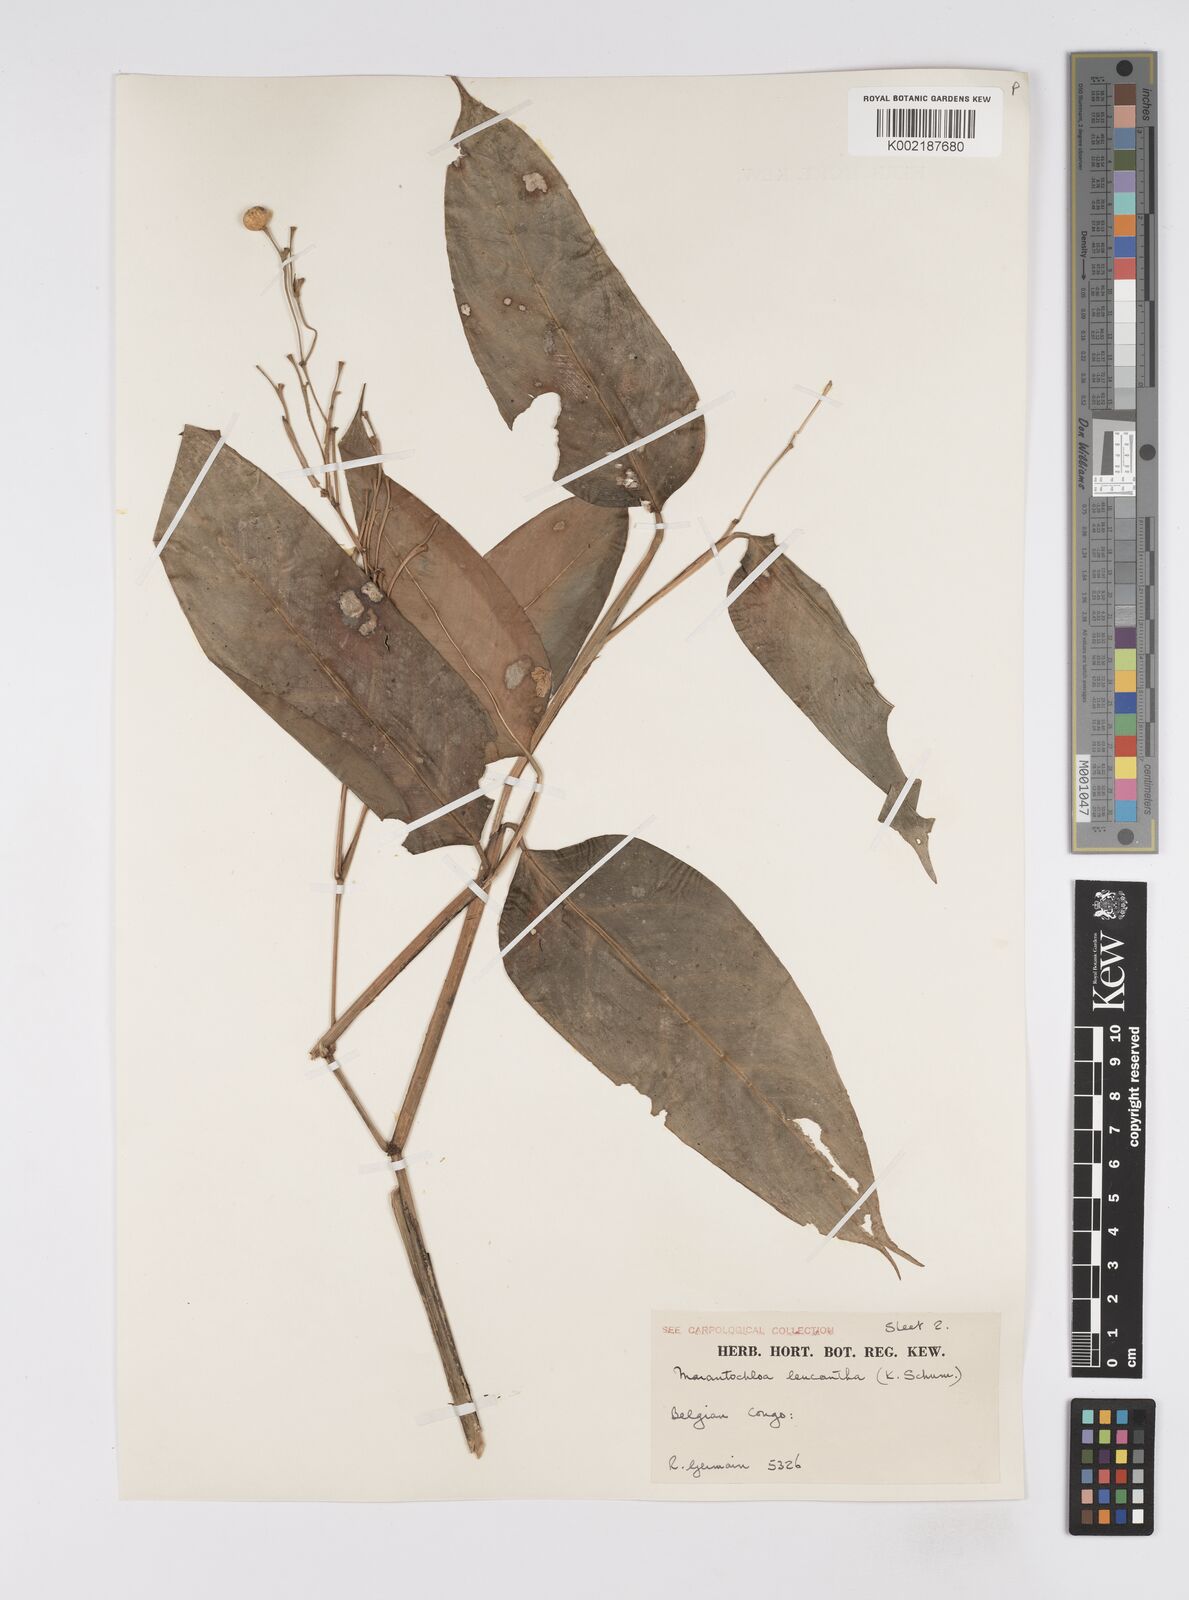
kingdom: Plantae
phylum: Tracheophyta
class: Liliopsida
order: Zingiberales
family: Marantaceae
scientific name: Marantaceae
